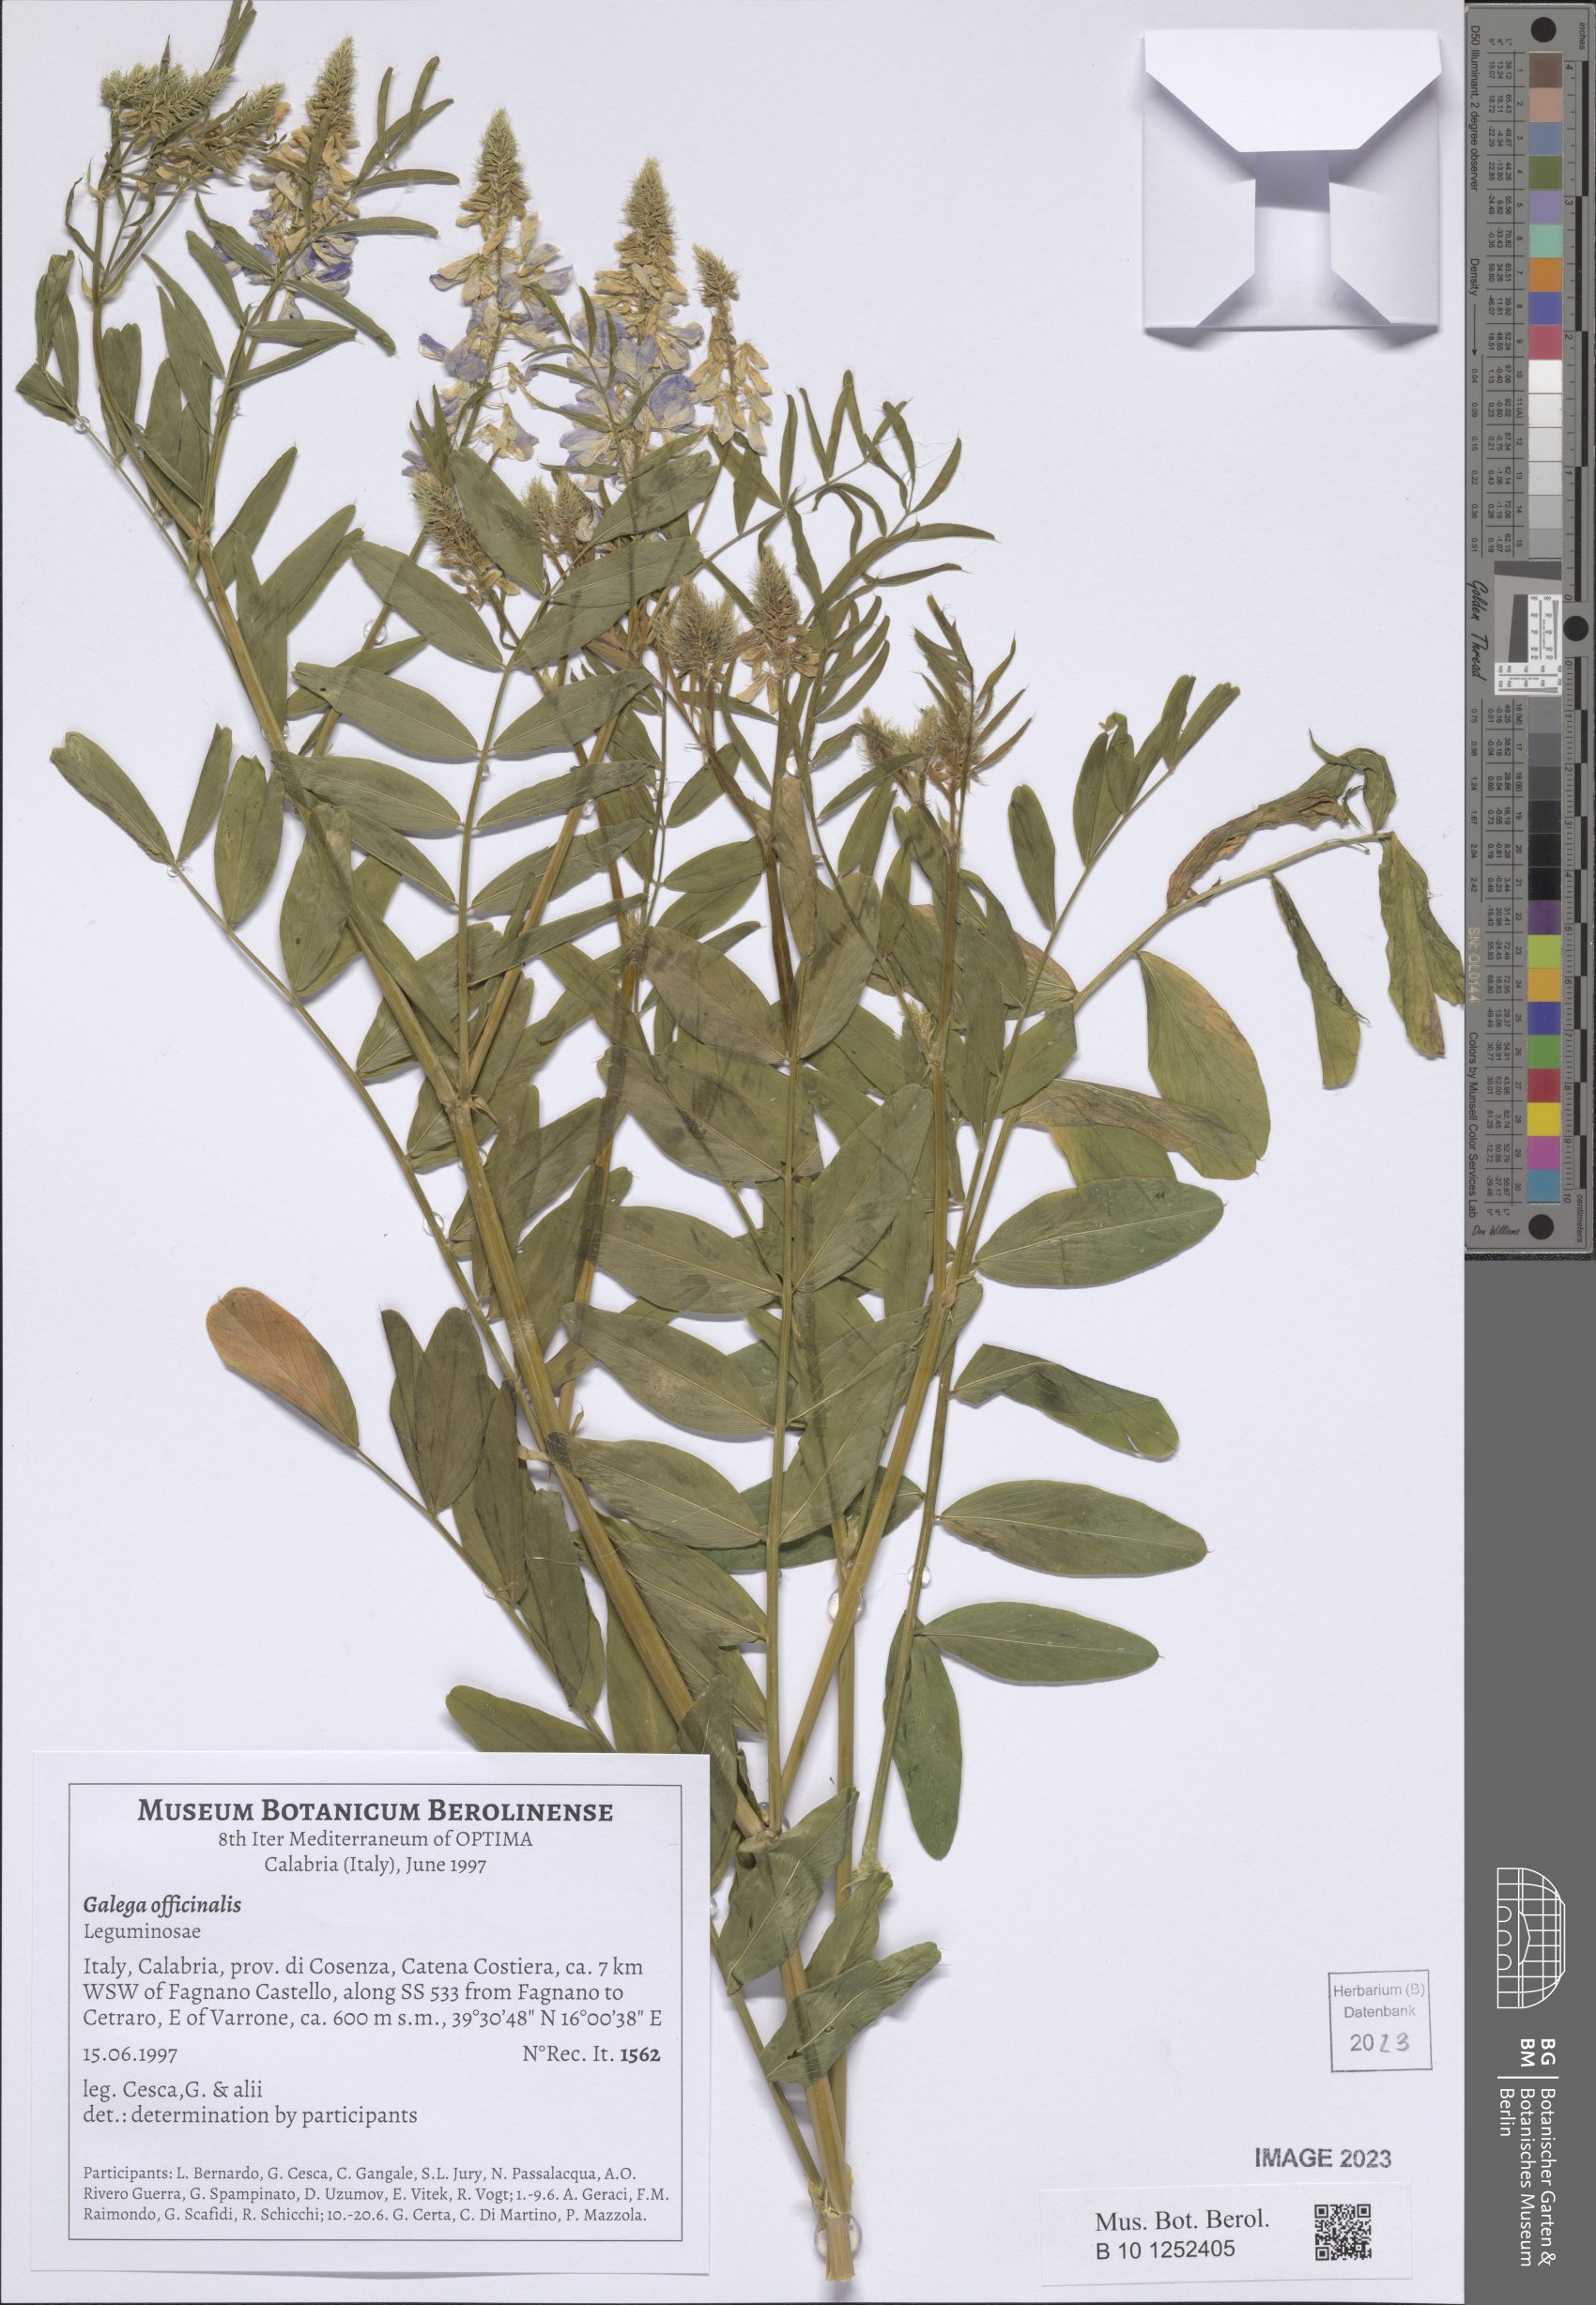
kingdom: Plantae
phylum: Tracheophyta
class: Magnoliopsida
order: Fabales
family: Fabaceae
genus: Galega
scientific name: Galega officinalis
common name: Goat's-rue
